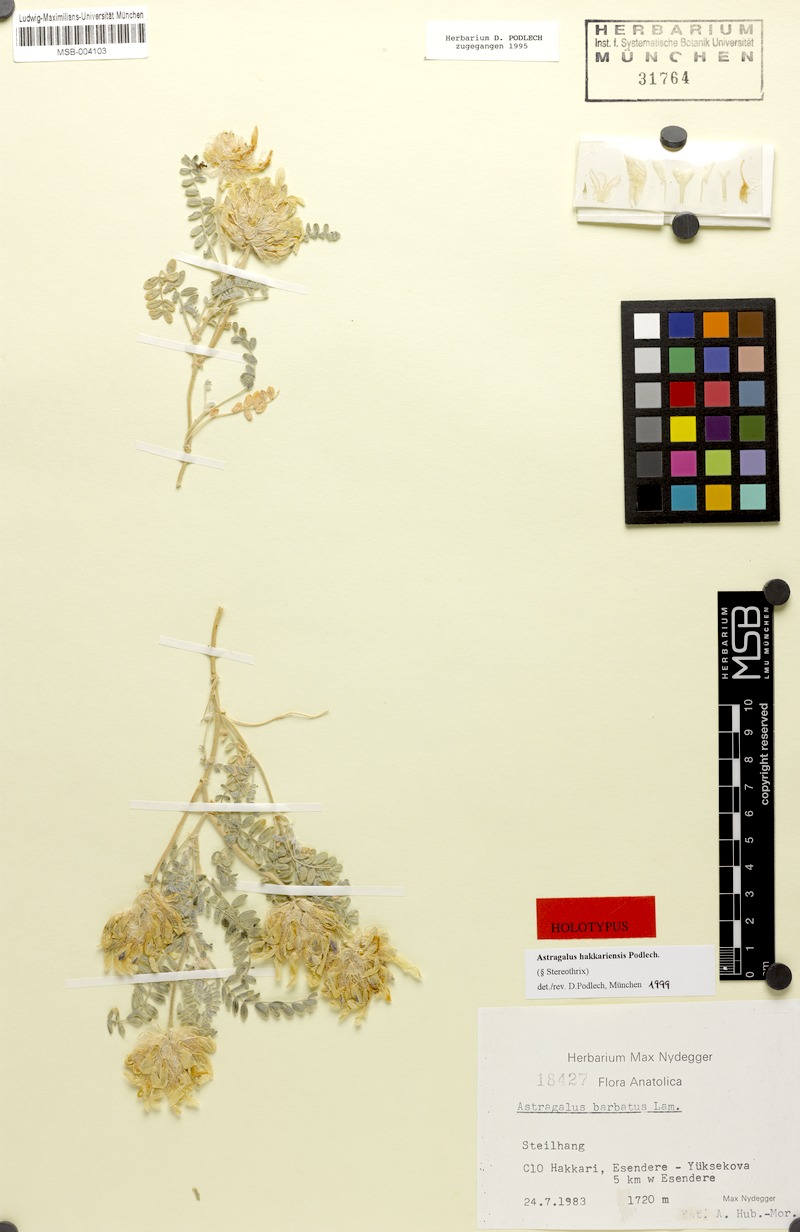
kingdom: Plantae
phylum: Tracheophyta
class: Magnoliopsida
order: Fabales
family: Fabaceae
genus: Astragalus
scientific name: Astragalus hakkariensis
